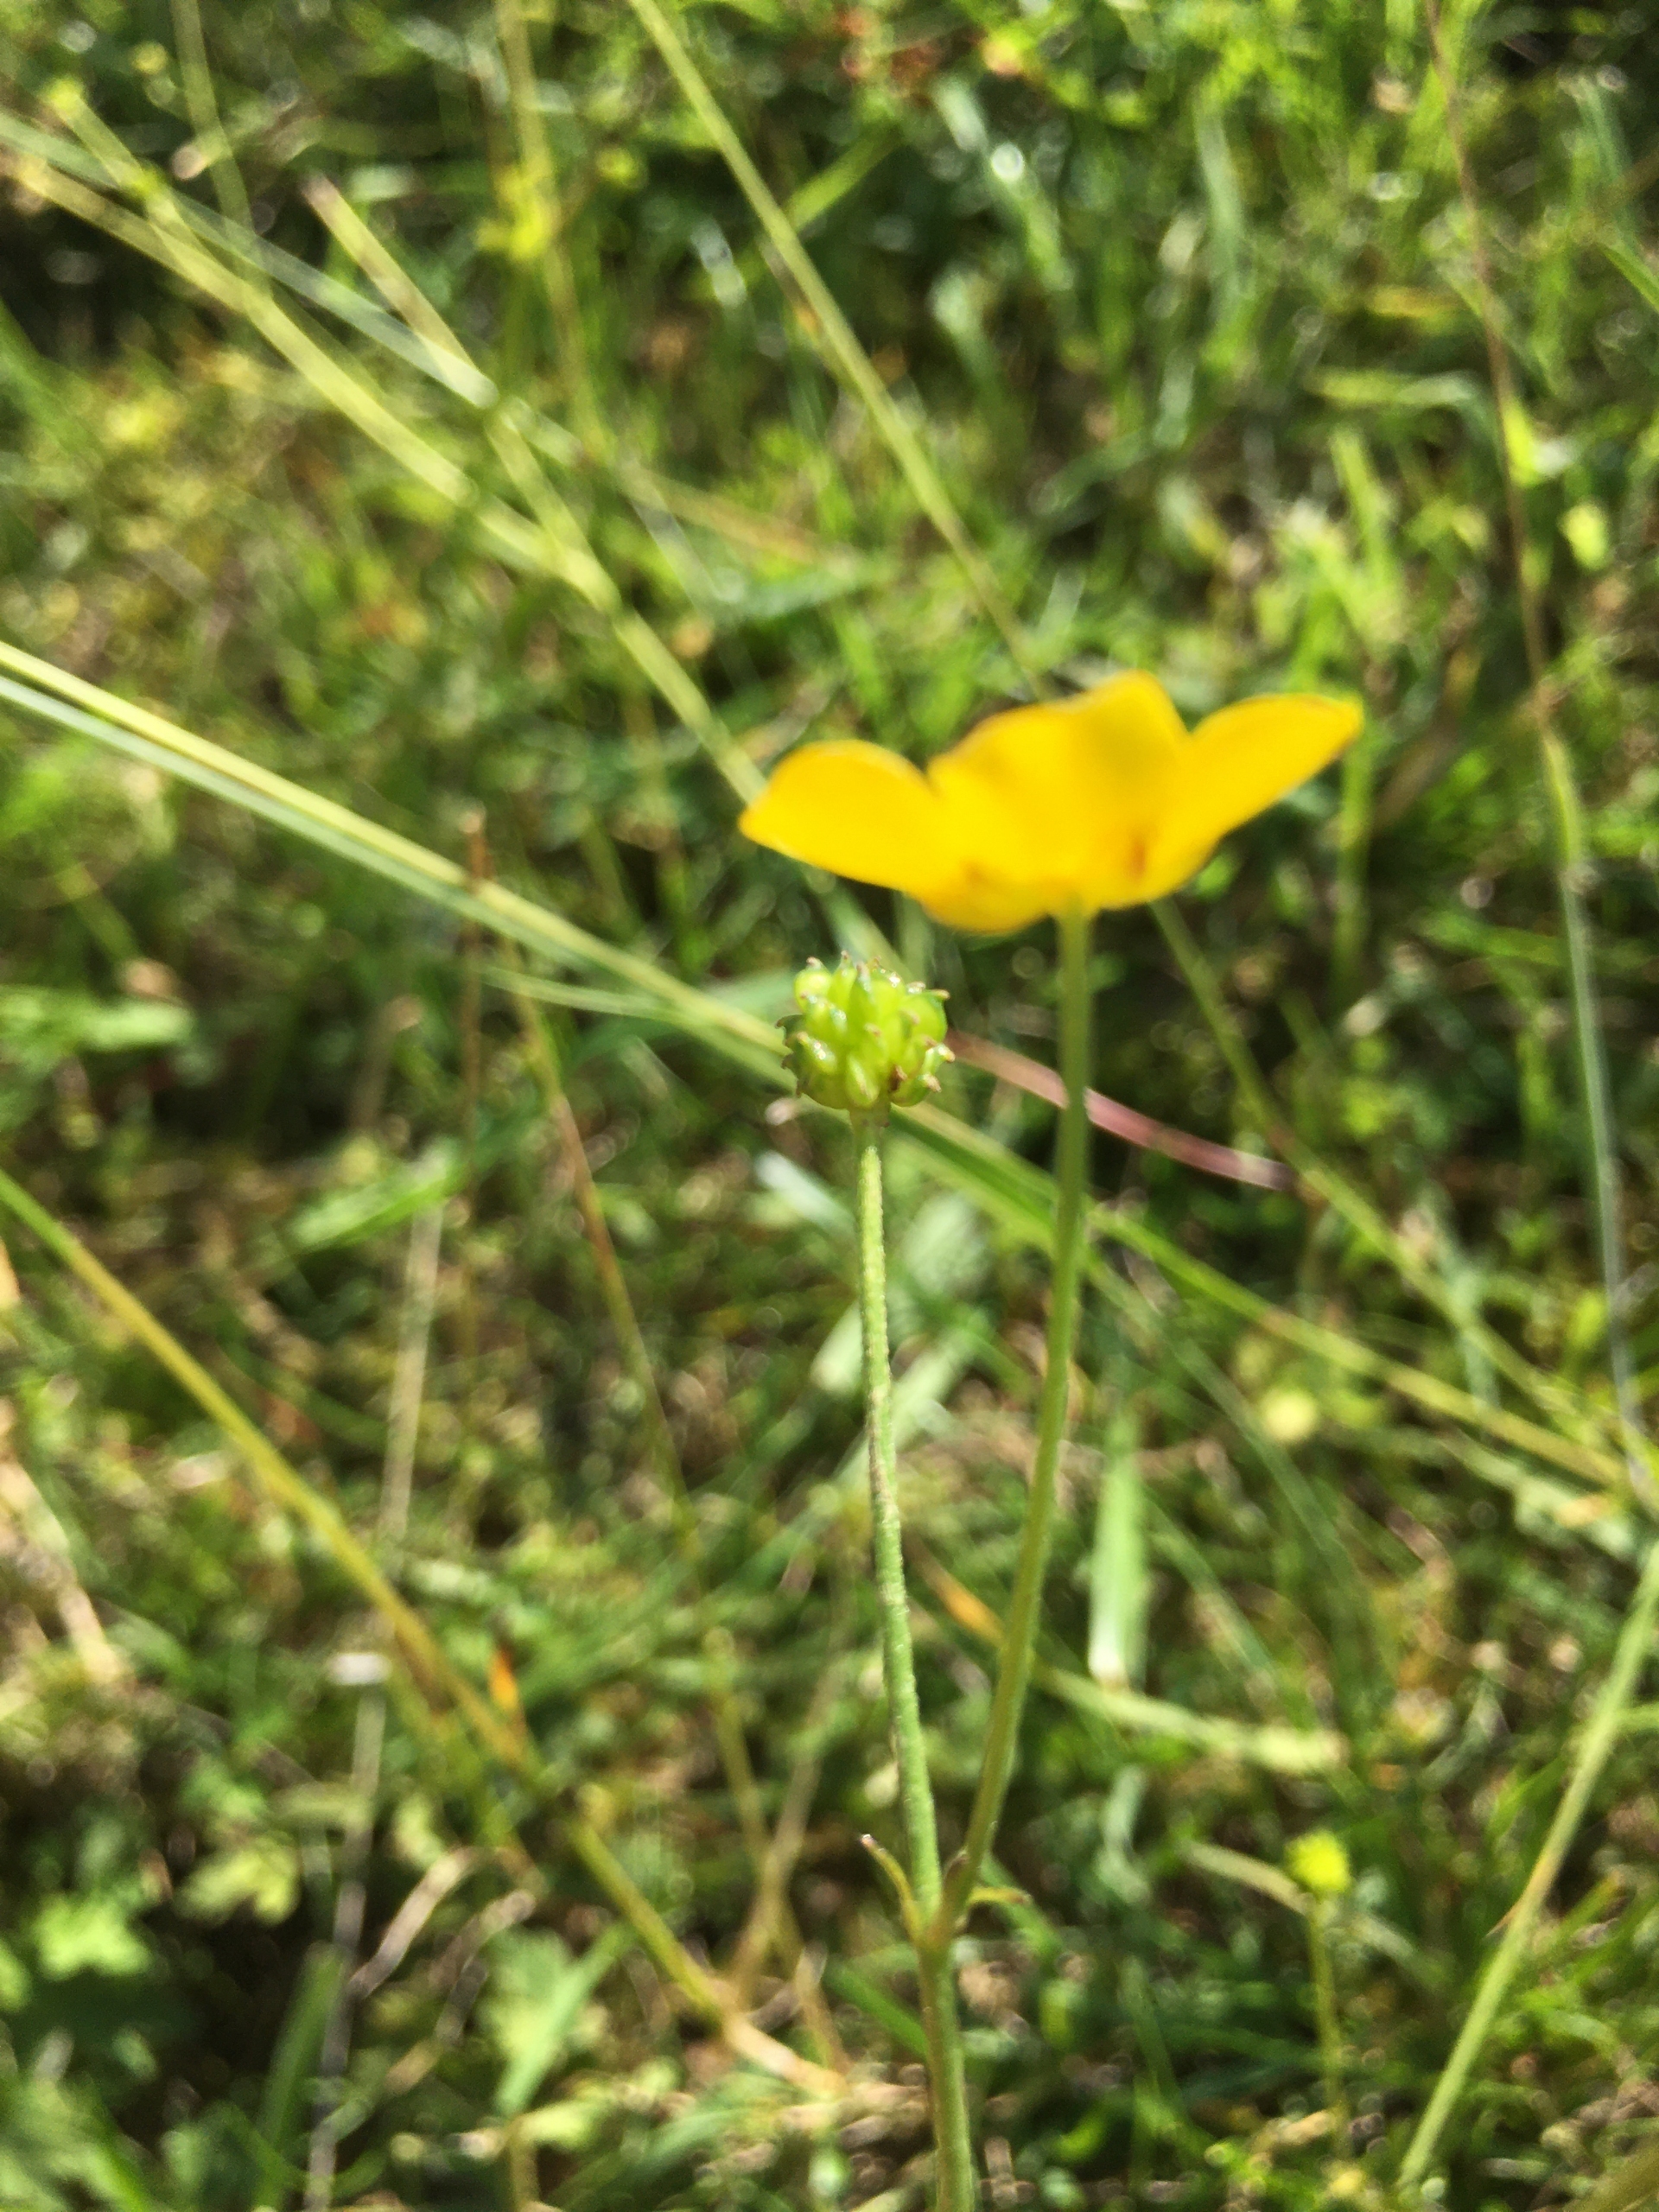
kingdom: Plantae
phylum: Tracheophyta
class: Magnoliopsida
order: Ranunculales
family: Ranunculaceae
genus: Ranunculus
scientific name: Ranunculus acris
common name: Bidende ranunkel
